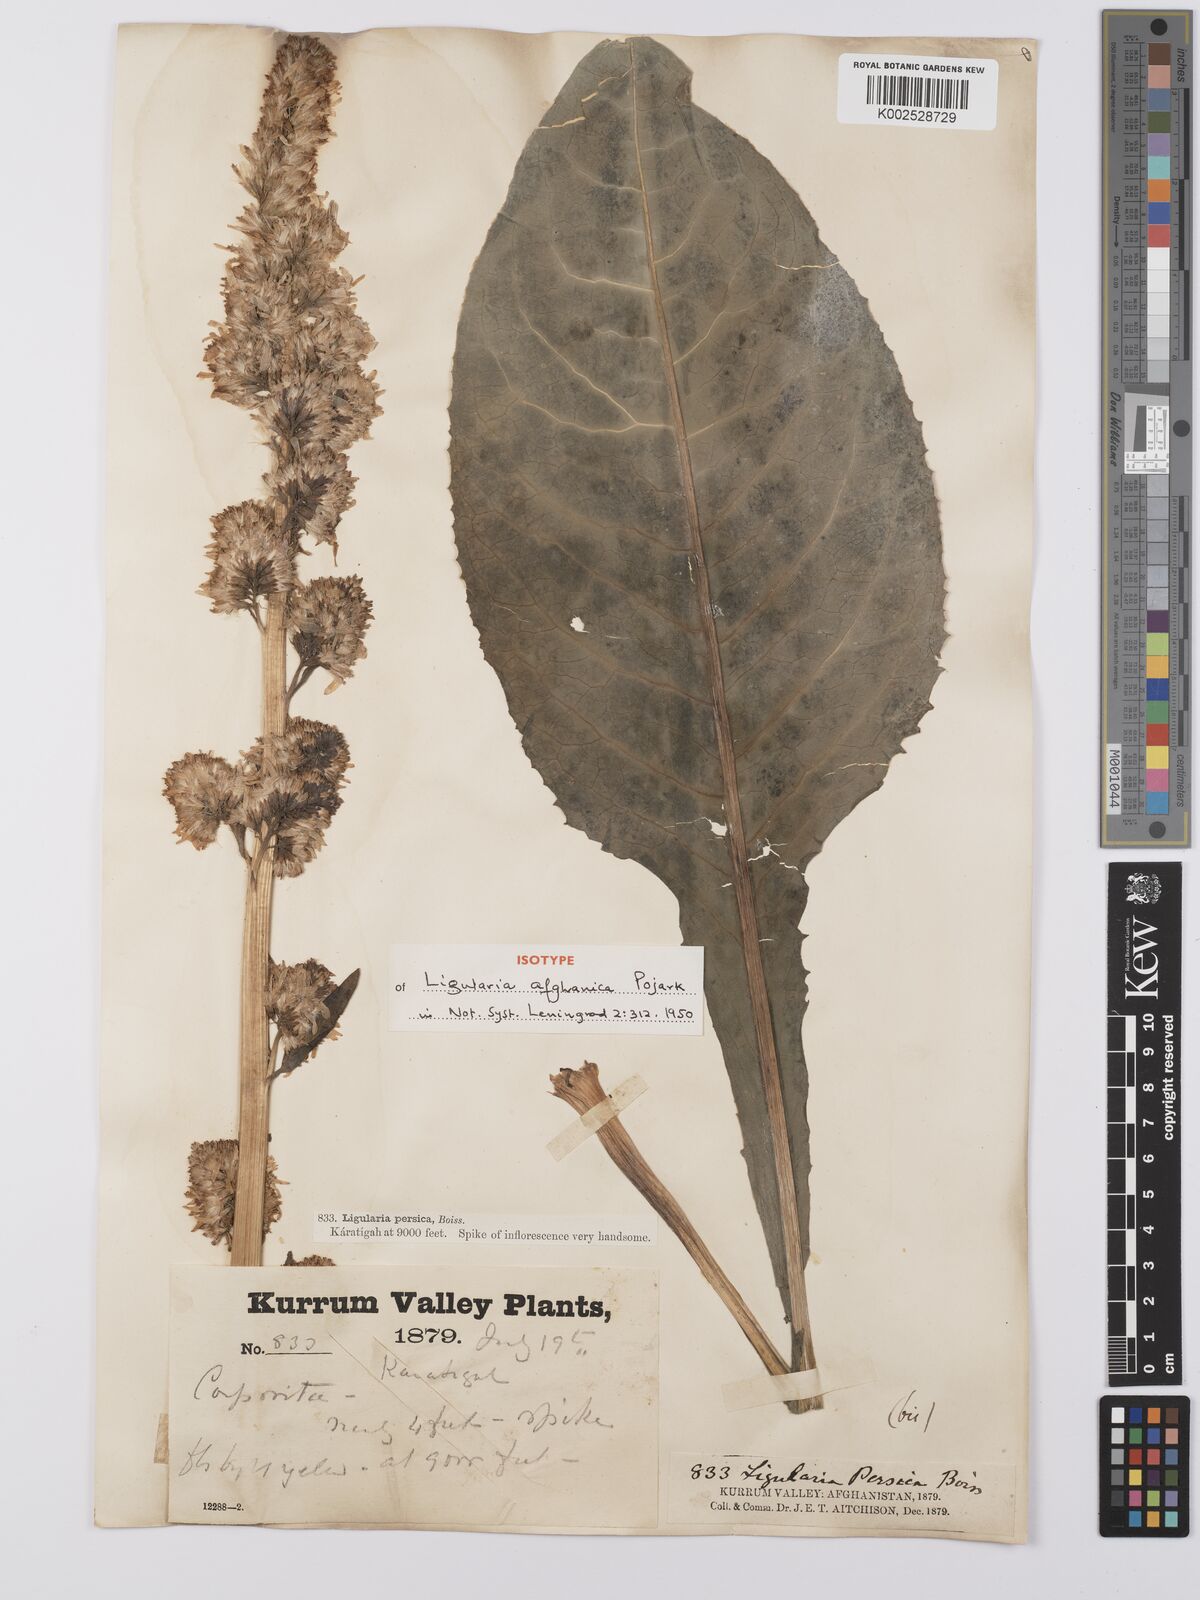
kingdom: Plantae
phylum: Tracheophyta
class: Magnoliopsida
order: Asterales
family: Asteraceae
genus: Ligularia
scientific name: Ligularia afghanica
